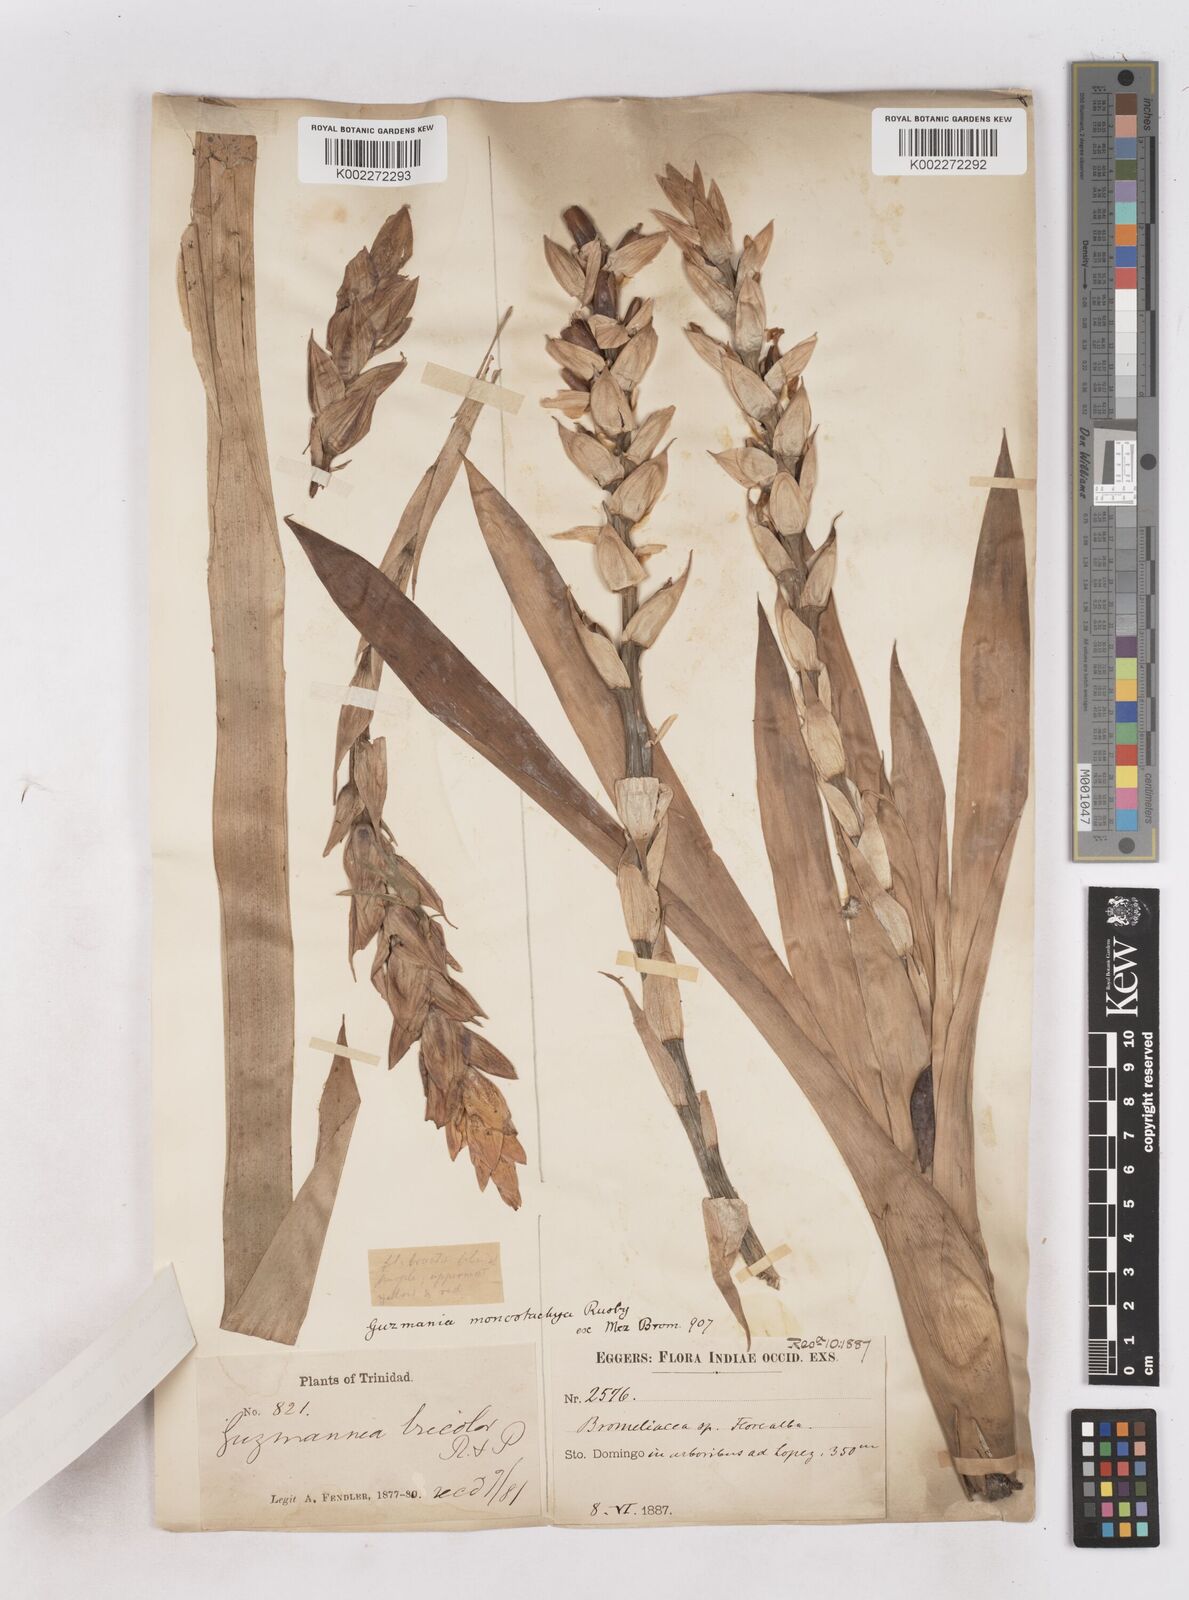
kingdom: Plantae
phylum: Tracheophyta
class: Liliopsida
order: Poales
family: Bromeliaceae
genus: Guzmania
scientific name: Guzmania monostachia
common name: West indian tufted airplant
